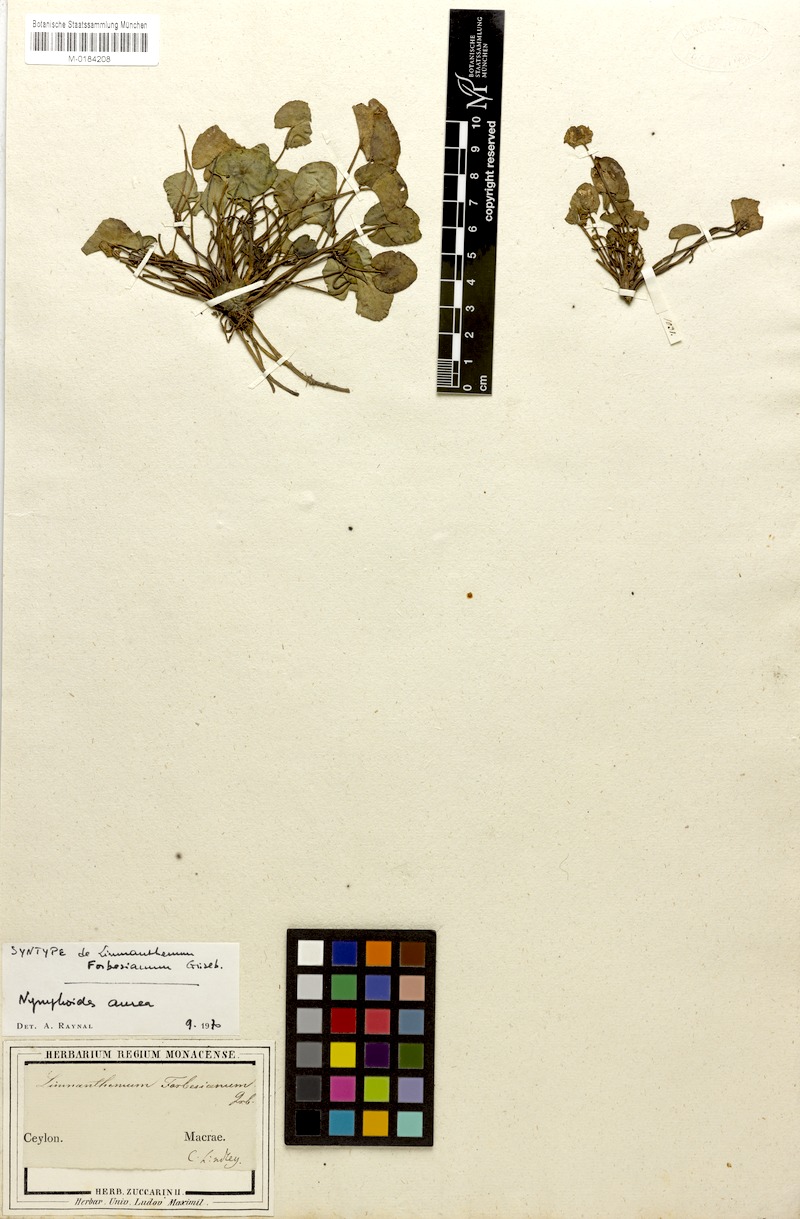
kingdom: Plantae
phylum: Tracheophyta
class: Magnoliopsida
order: Asterales
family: Menyanthaceae
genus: Nymphoides
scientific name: Nymphoides forbesiana
